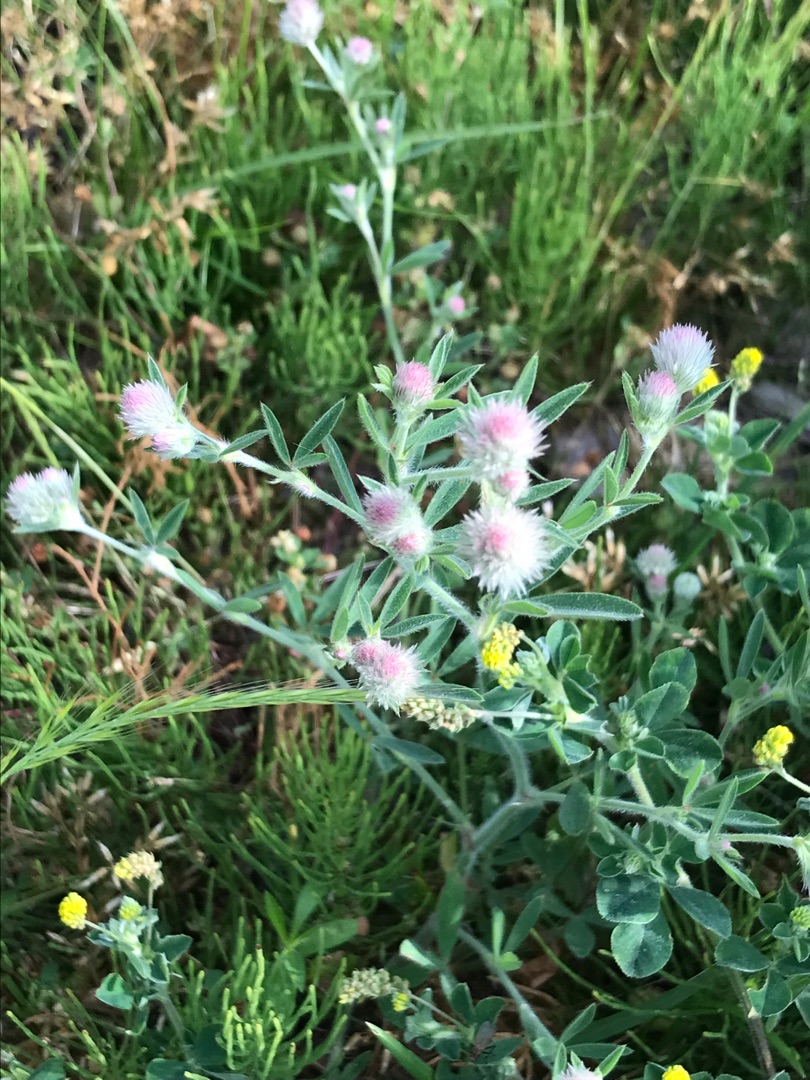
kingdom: Plantae
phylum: Tracheophyta
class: Magnoliopsida
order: Fabales
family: Fabaceae
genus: Trifolium
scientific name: Trifolium arvense
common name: Hare-kløver
